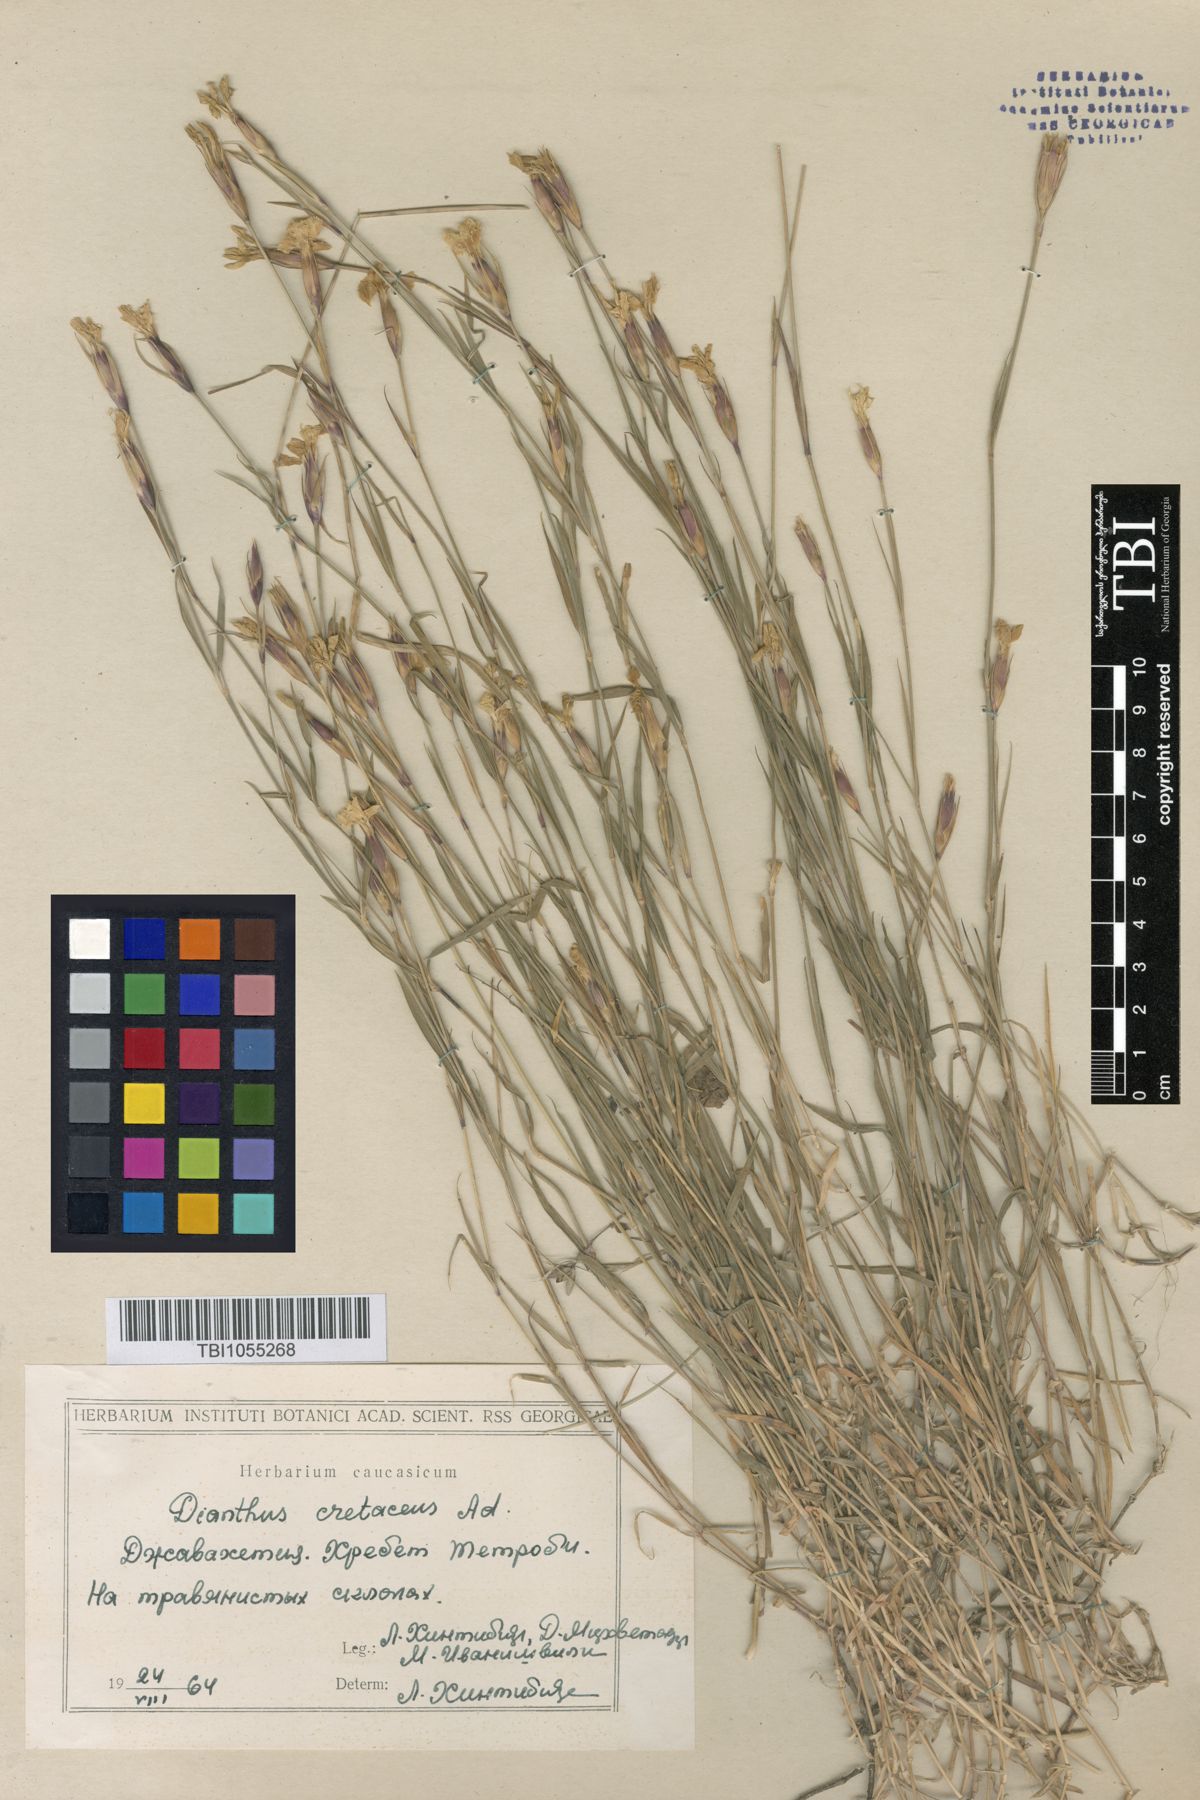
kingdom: Plantae
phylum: Tracheophyta
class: Magnoliopsida
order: Caryophyllales
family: Caryophyllaceae
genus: Dianthus
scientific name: Dianthus cretaceus
